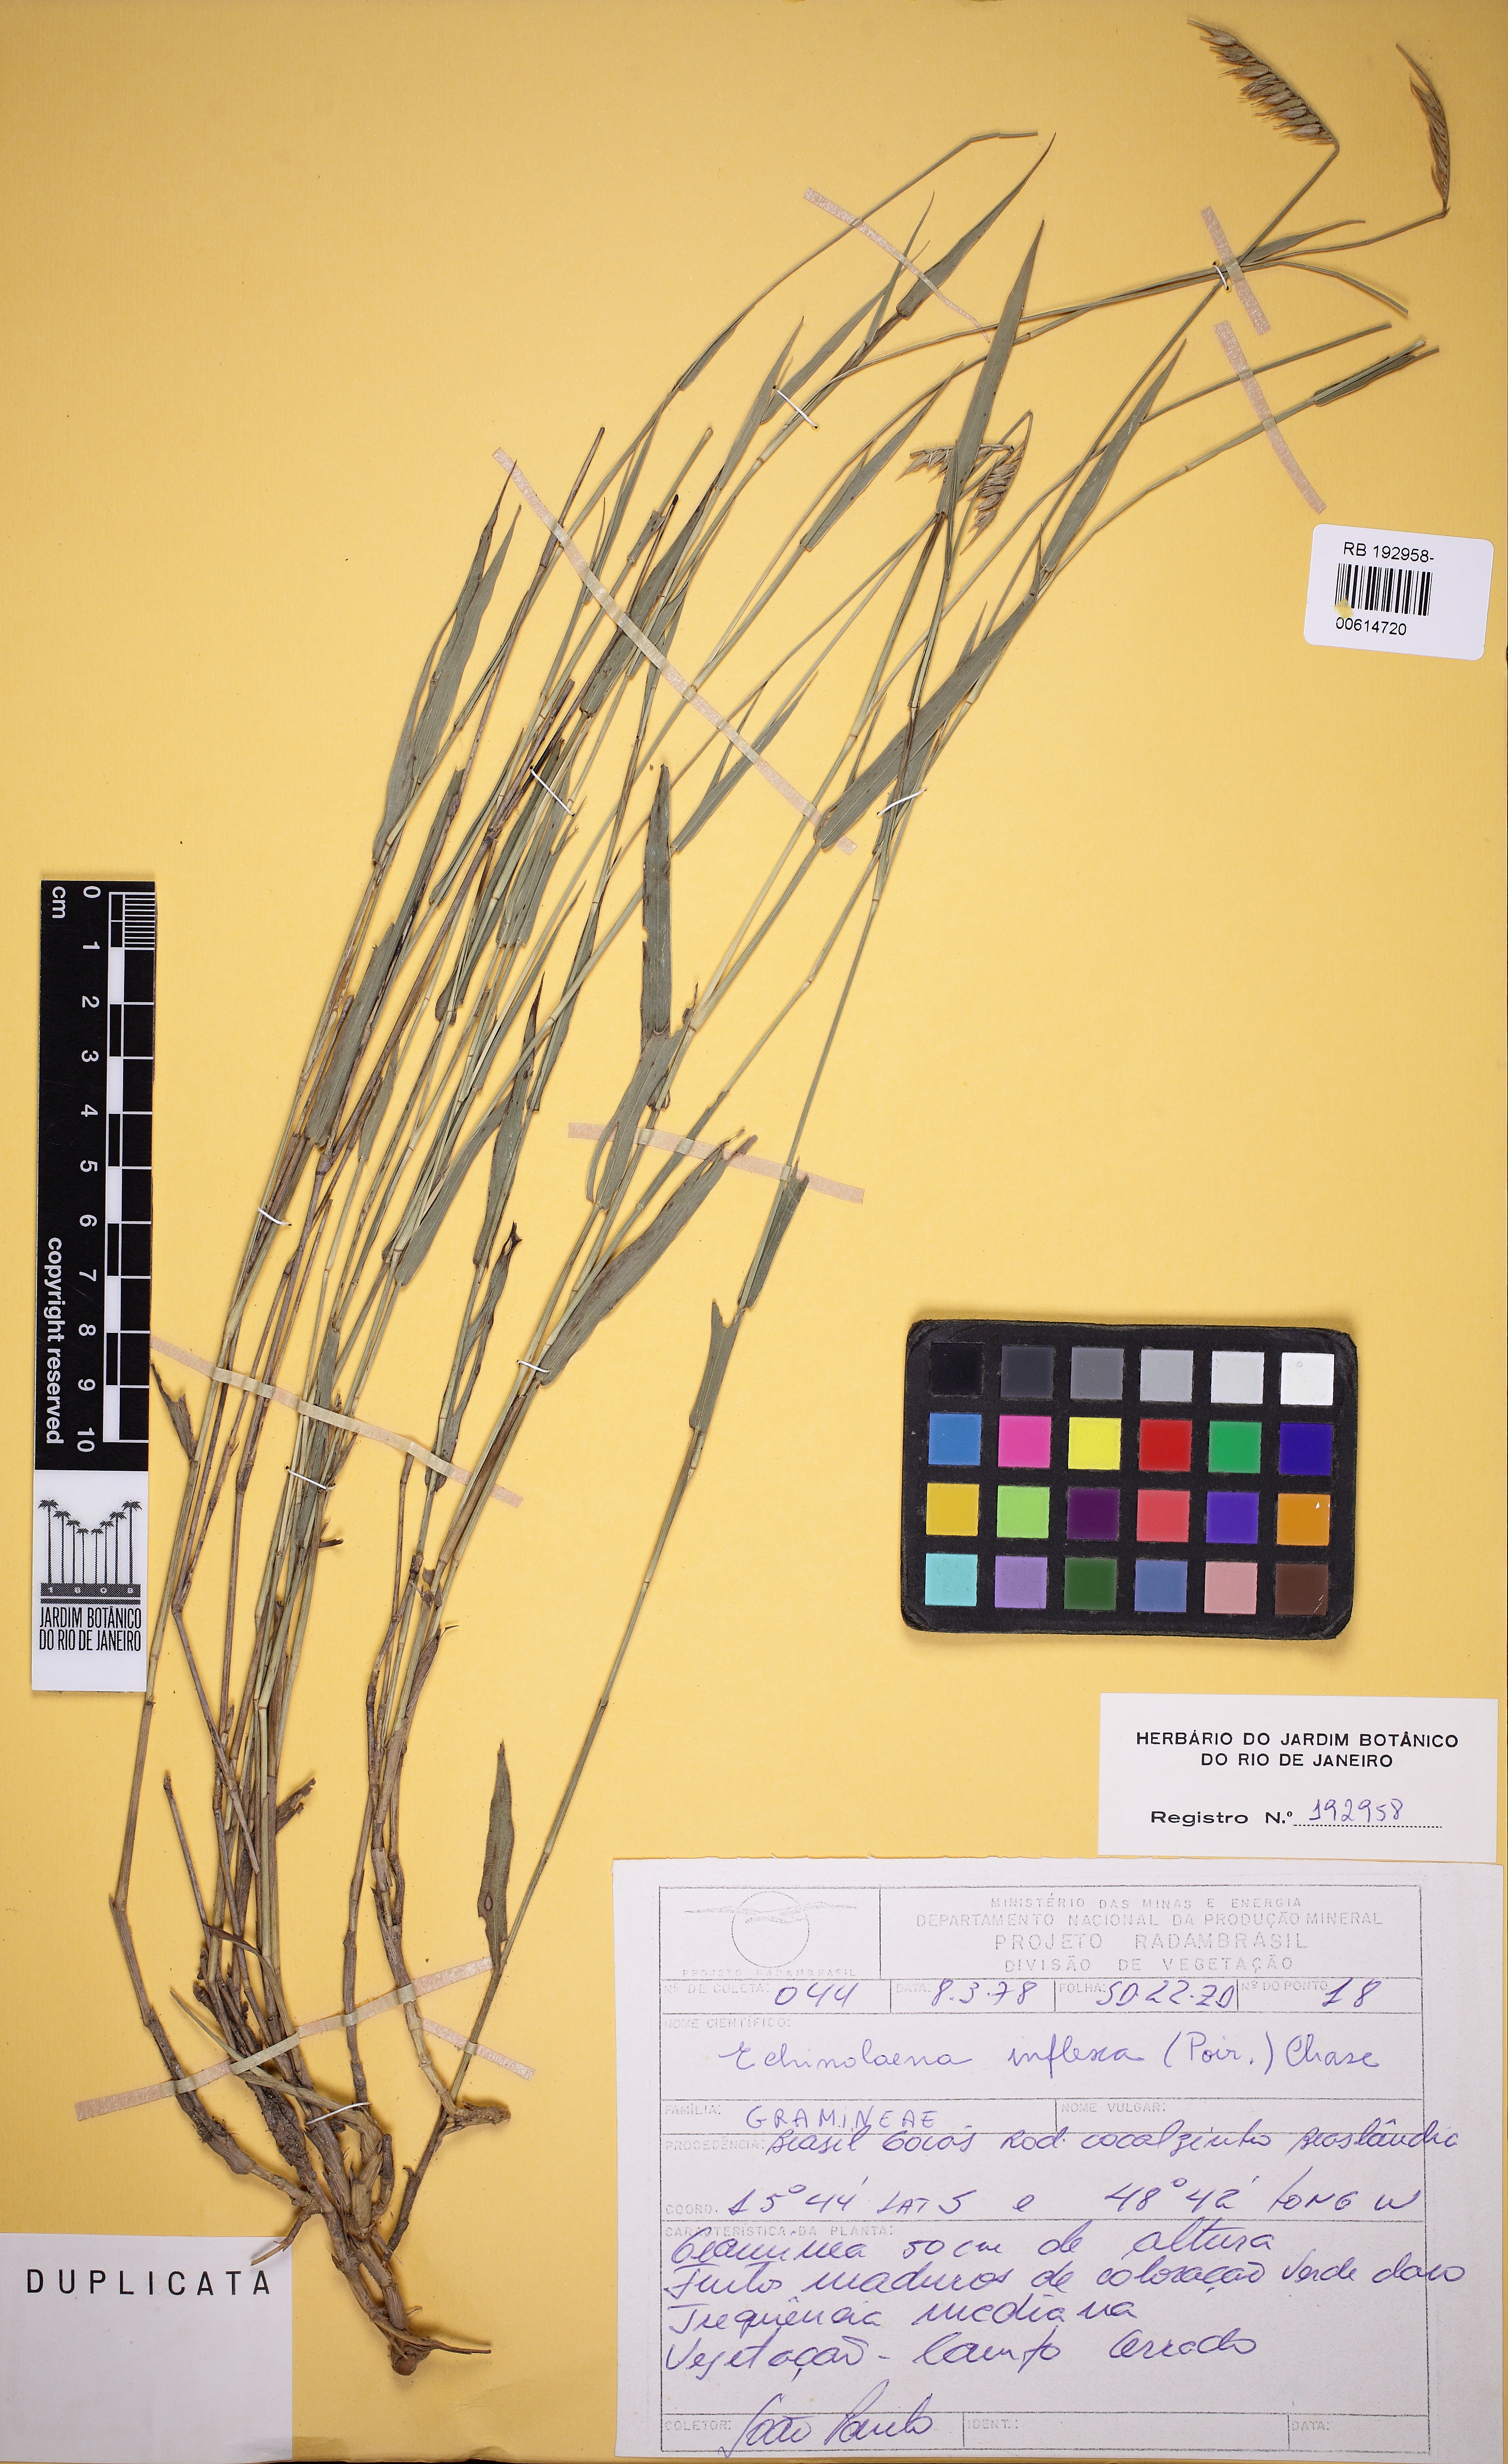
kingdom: Plantae
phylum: Tracheophyta
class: Liliopsida
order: Poales
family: Poaceae
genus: Echinolaena
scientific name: Echinolaena inflexa
